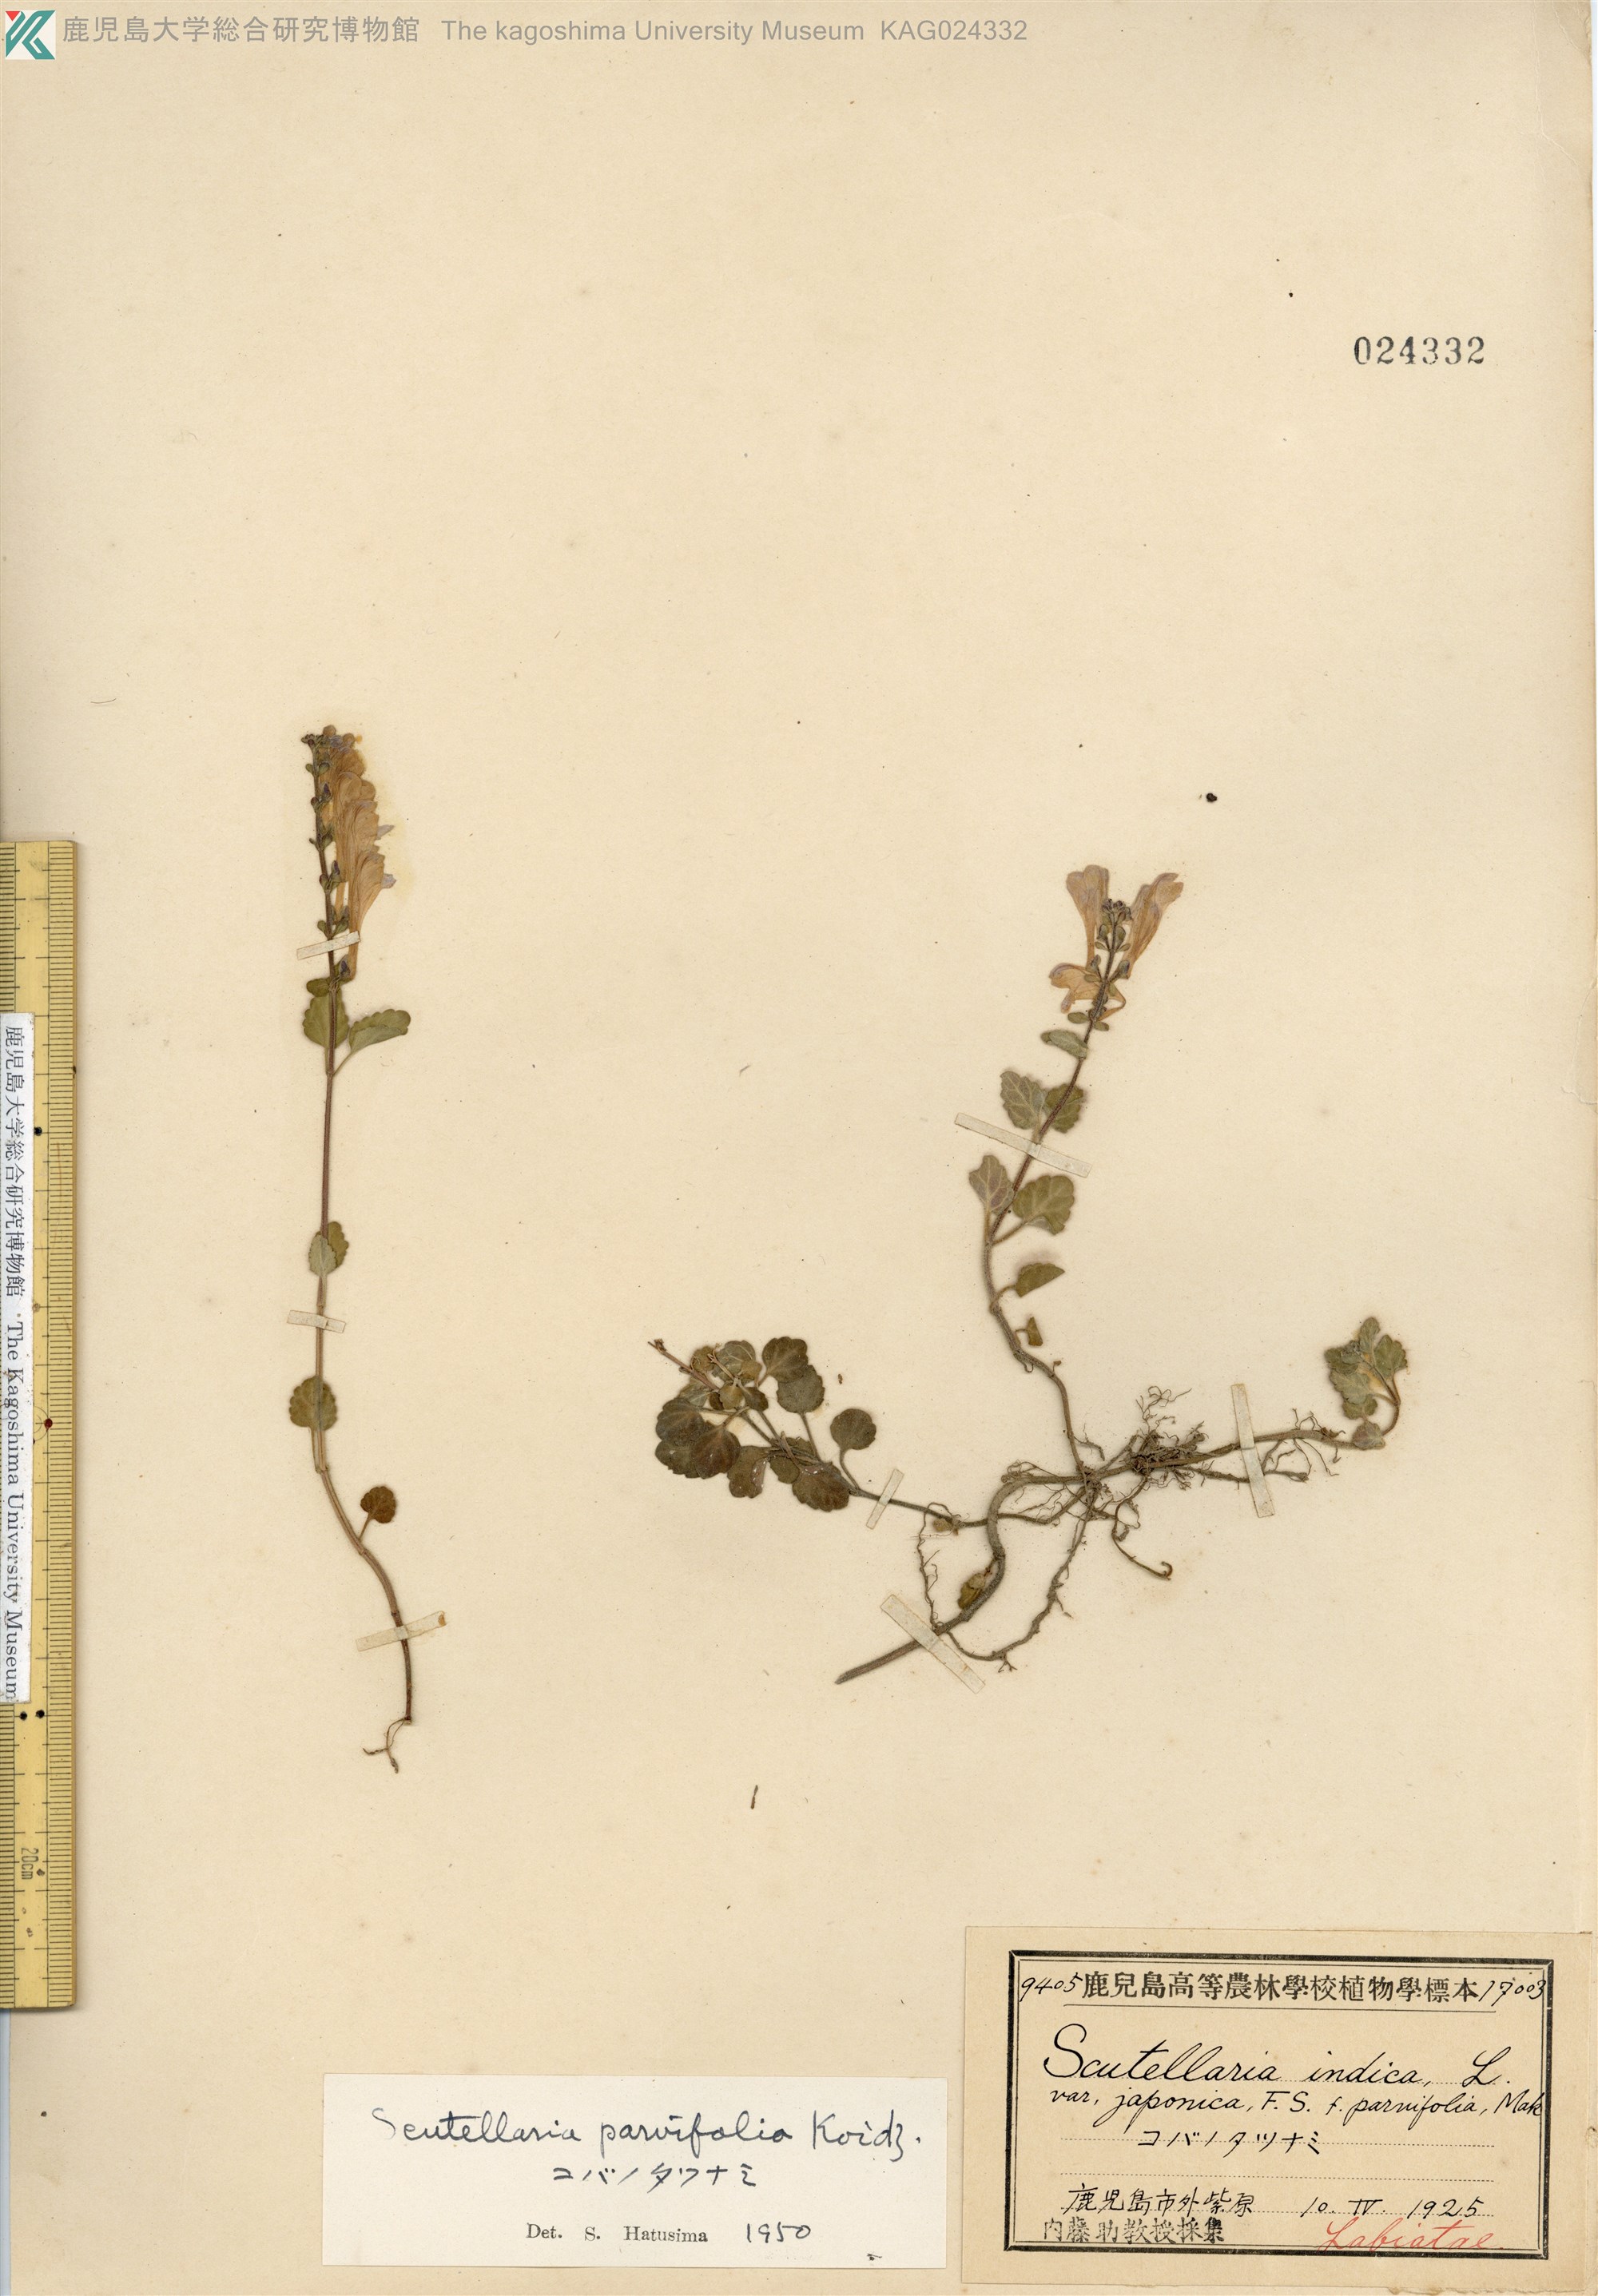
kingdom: Plantae
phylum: Tracheophyta
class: Magnoliopsida
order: Lamiales
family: Lamiaceae
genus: Scutellaria
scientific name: Scutellaria indica
